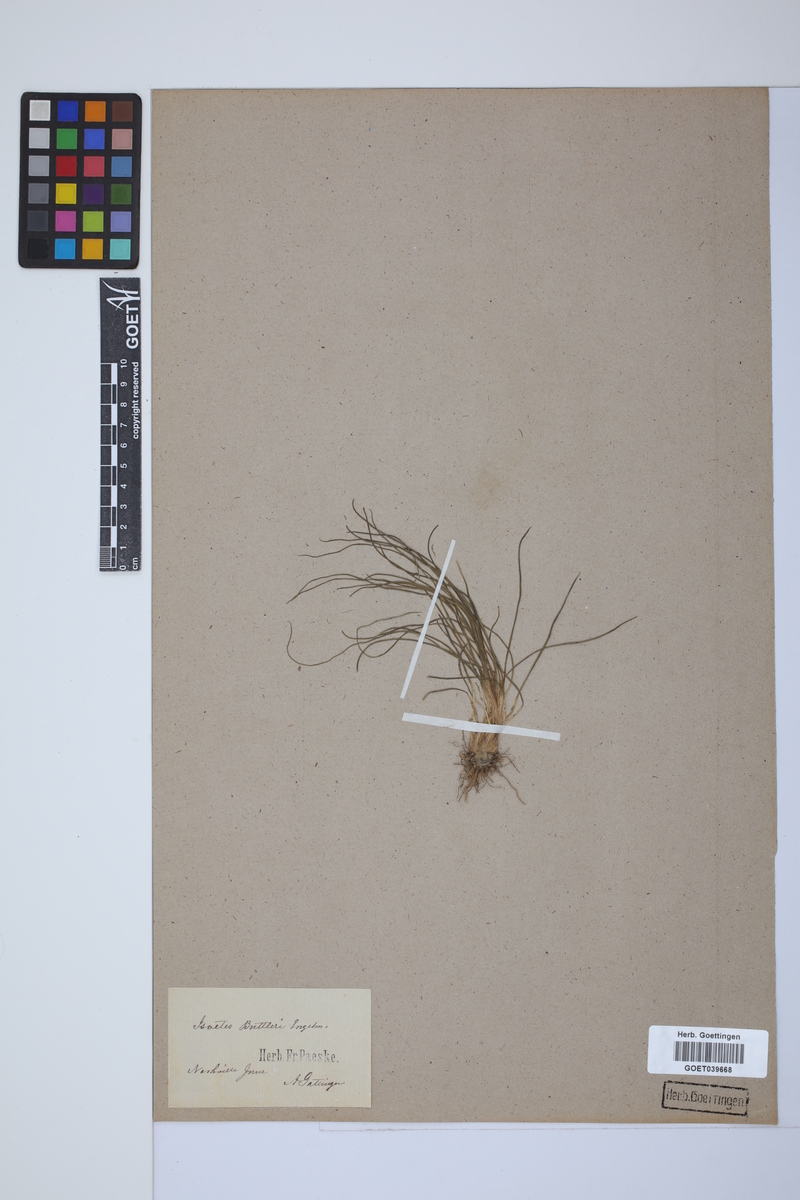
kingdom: Plantae
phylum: Tracheophyta
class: Lycopodiopsida
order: Isoetales
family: Isoetaceae
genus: Isoetes
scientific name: Isoetes butleri
